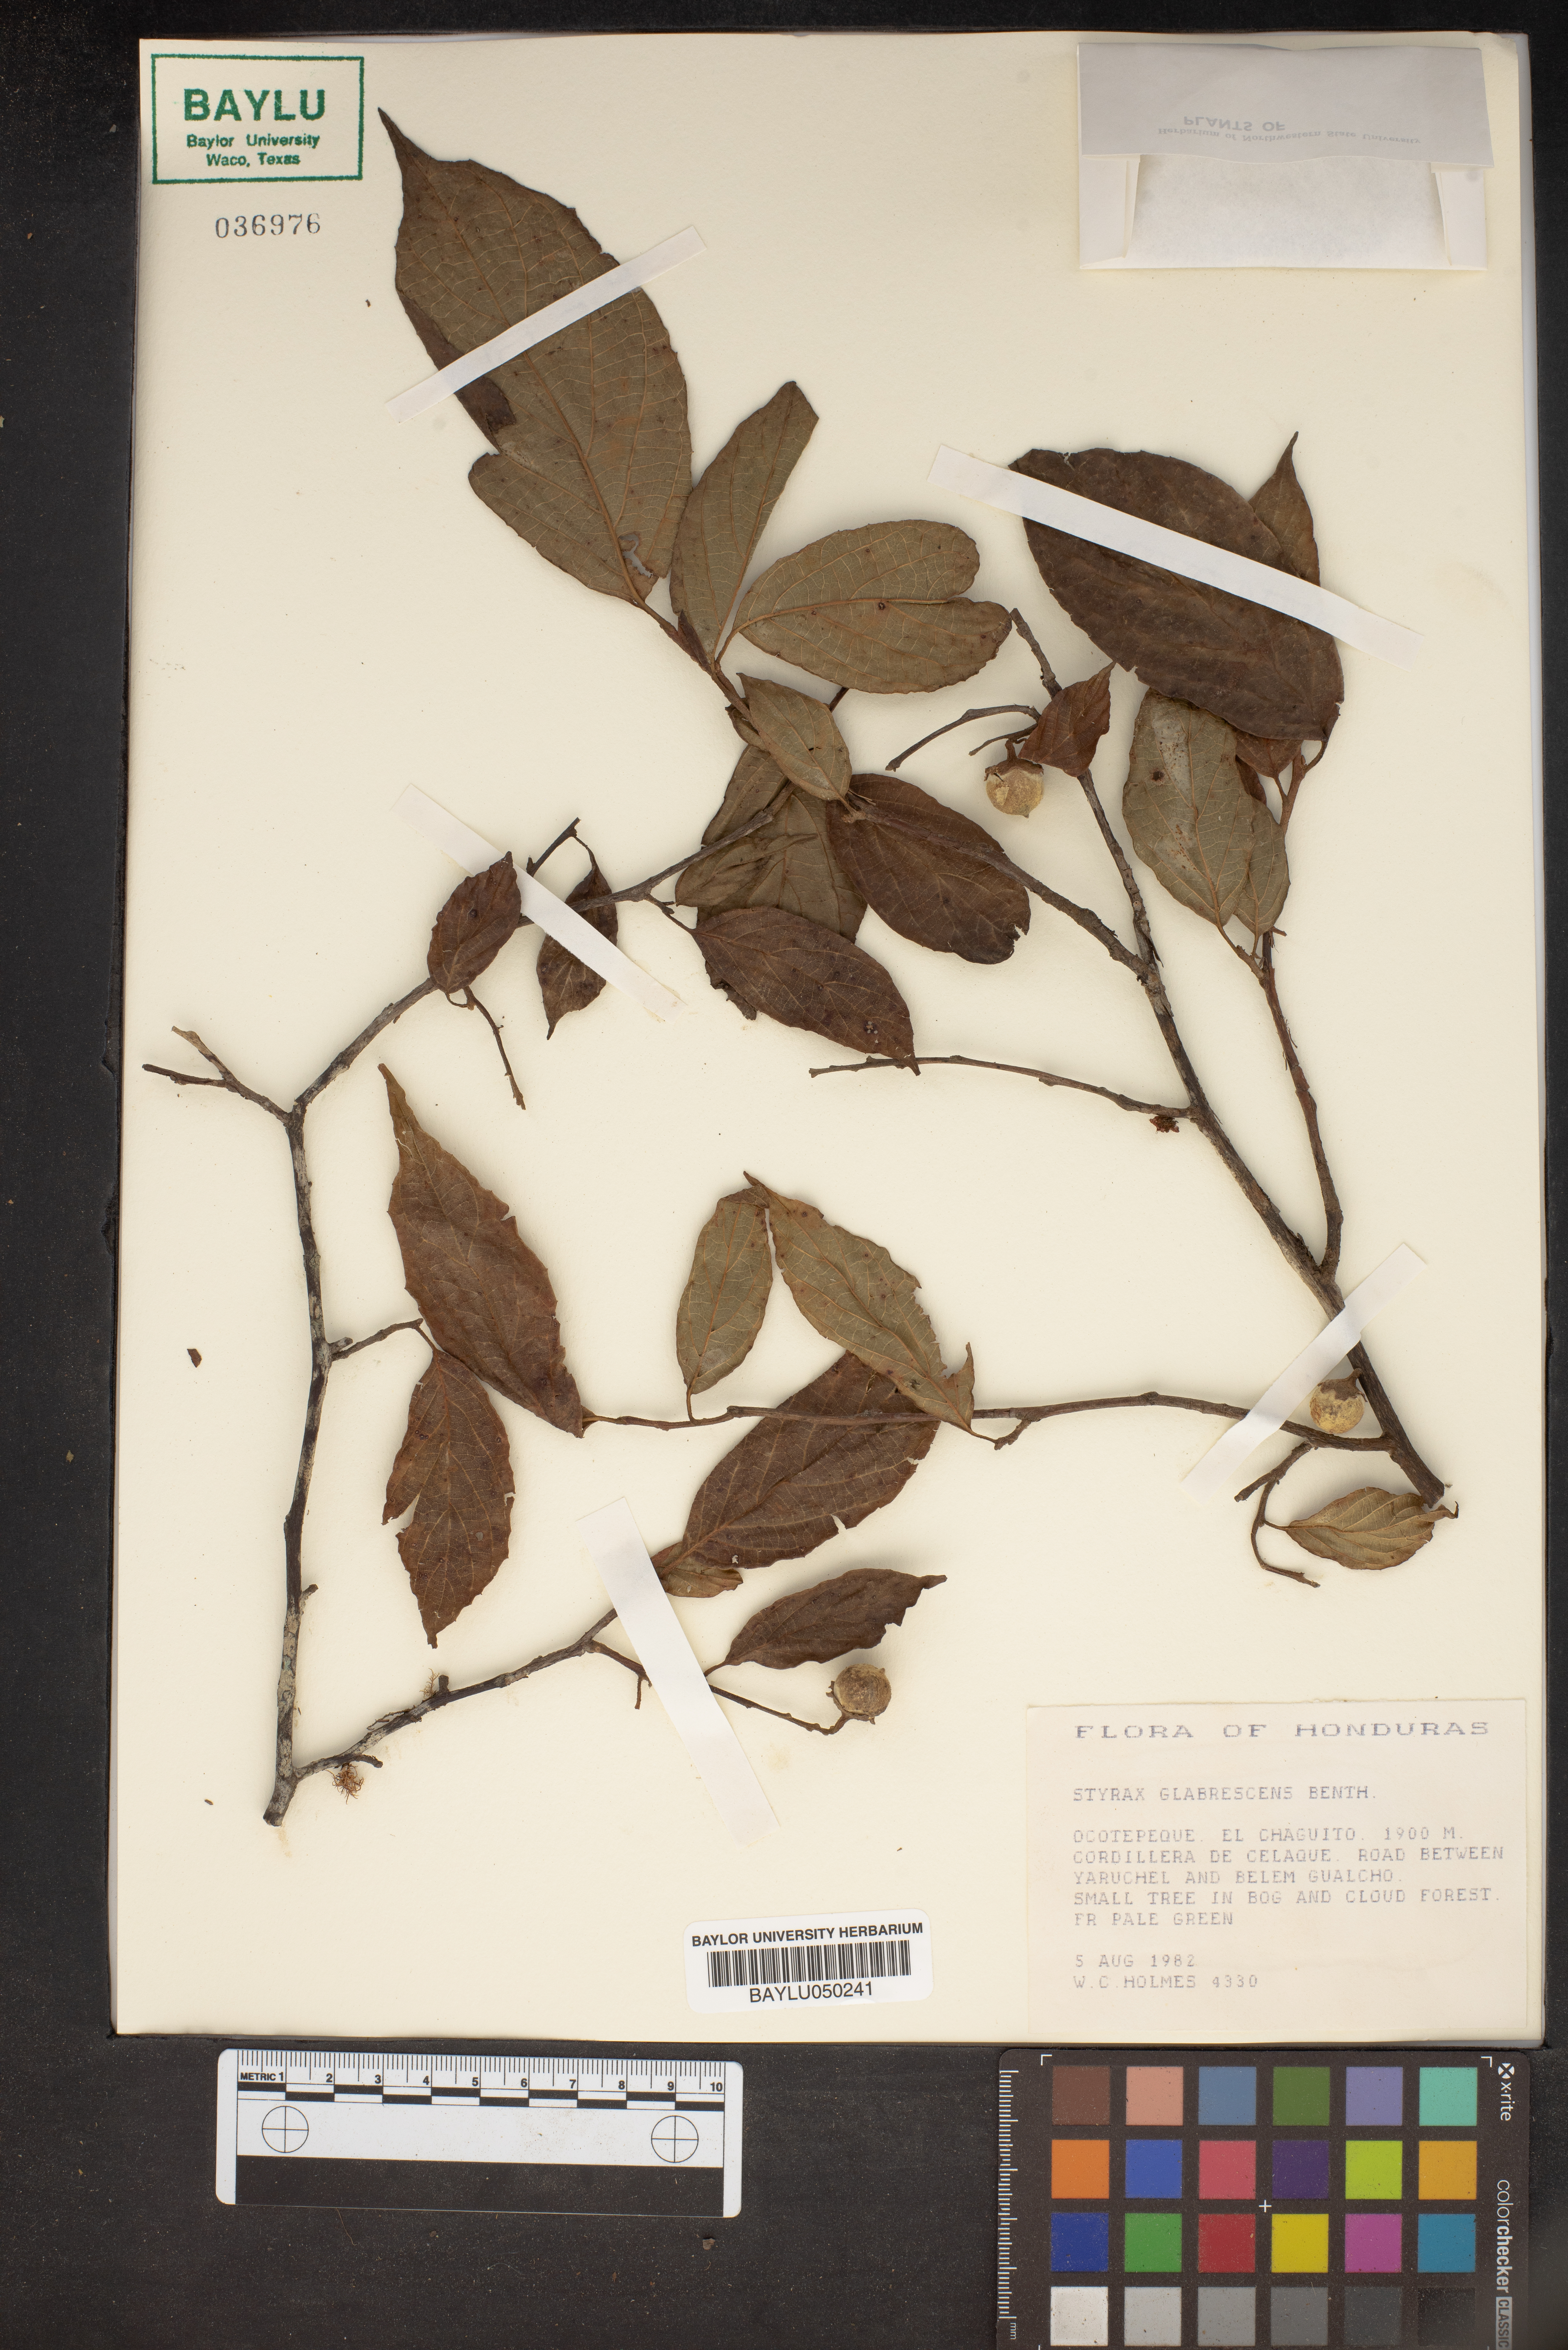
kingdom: Plantae
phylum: Tracheophyta
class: Magnoliopsida
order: Ericales
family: Styracaceae
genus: Styrax
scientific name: Styrax glabrescens
